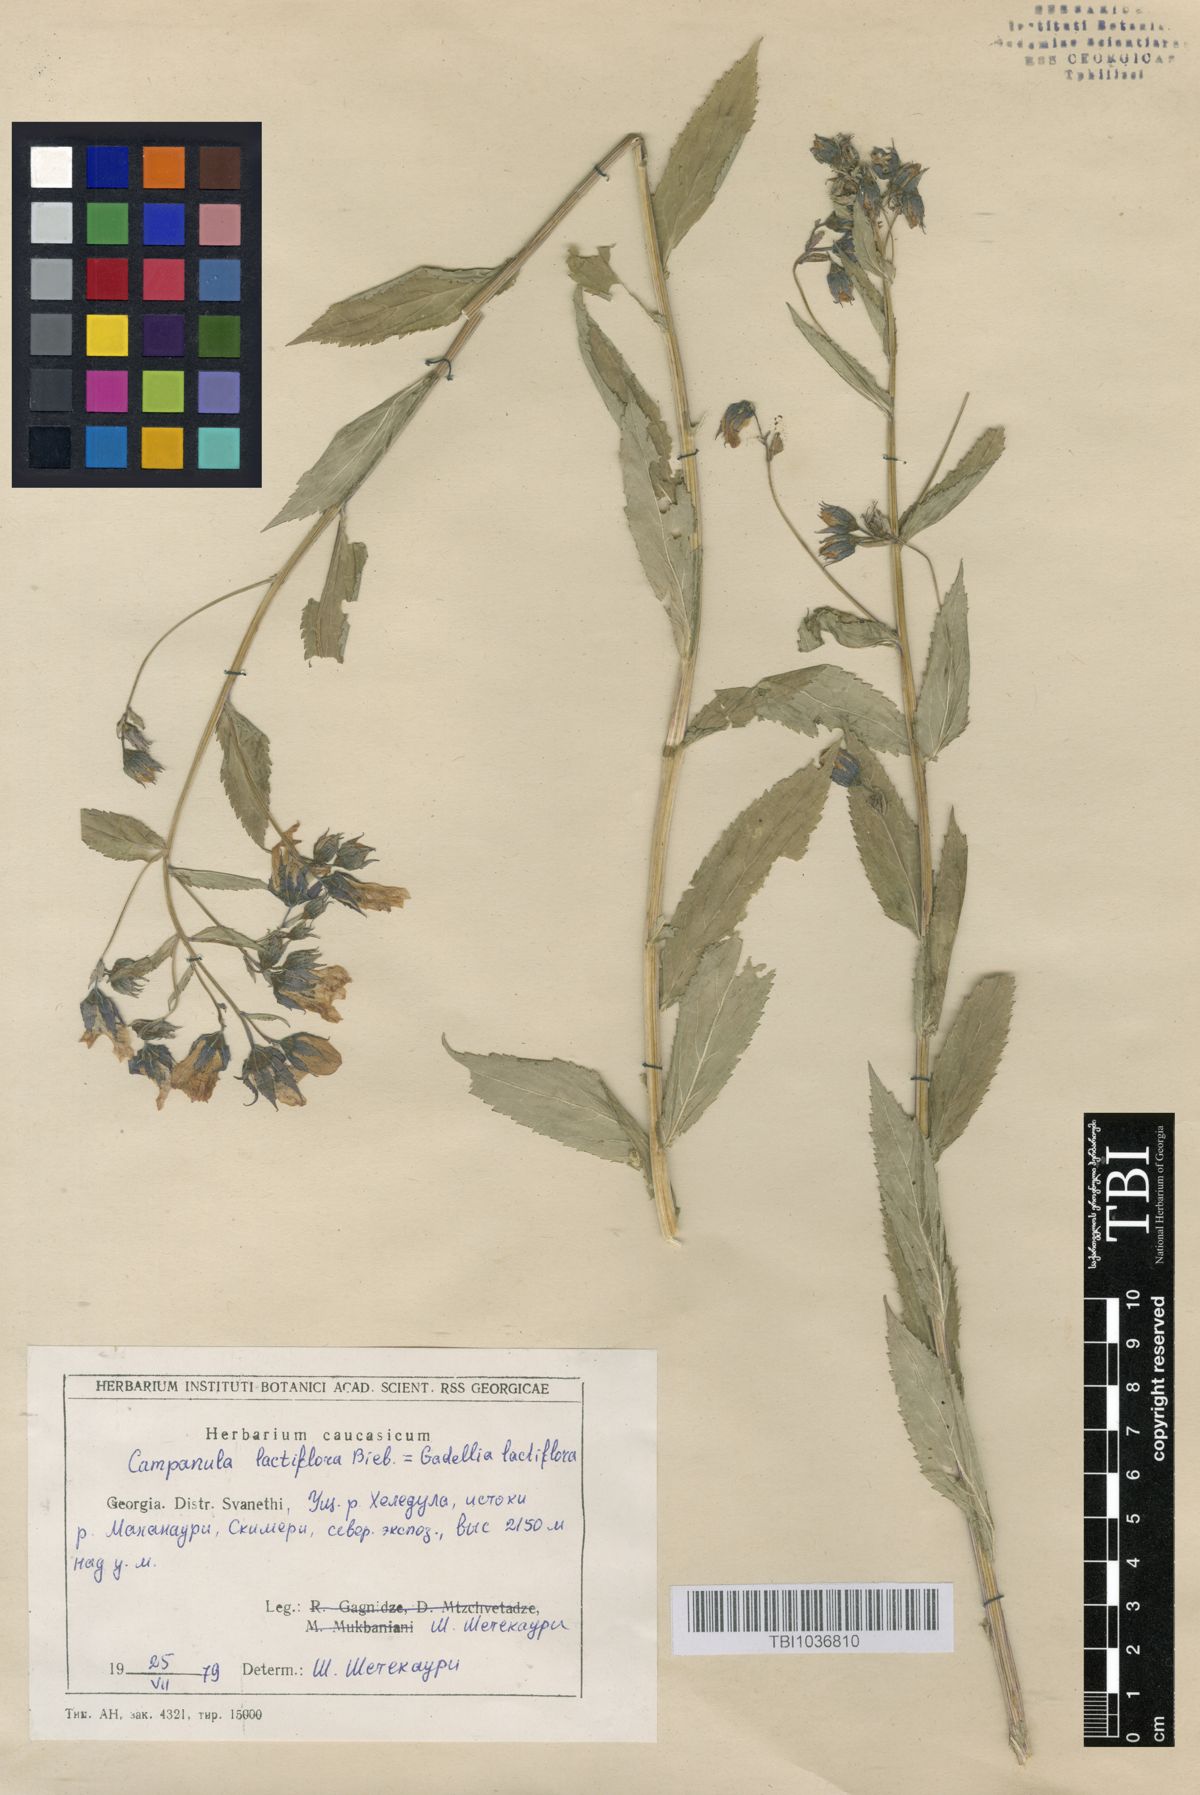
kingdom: Plantae
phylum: Tracheophyta
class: Magnoliopsida
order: Asterales
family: Campanulaceae
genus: Campanula
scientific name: Campanula lactiflora
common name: Milky bellflower
